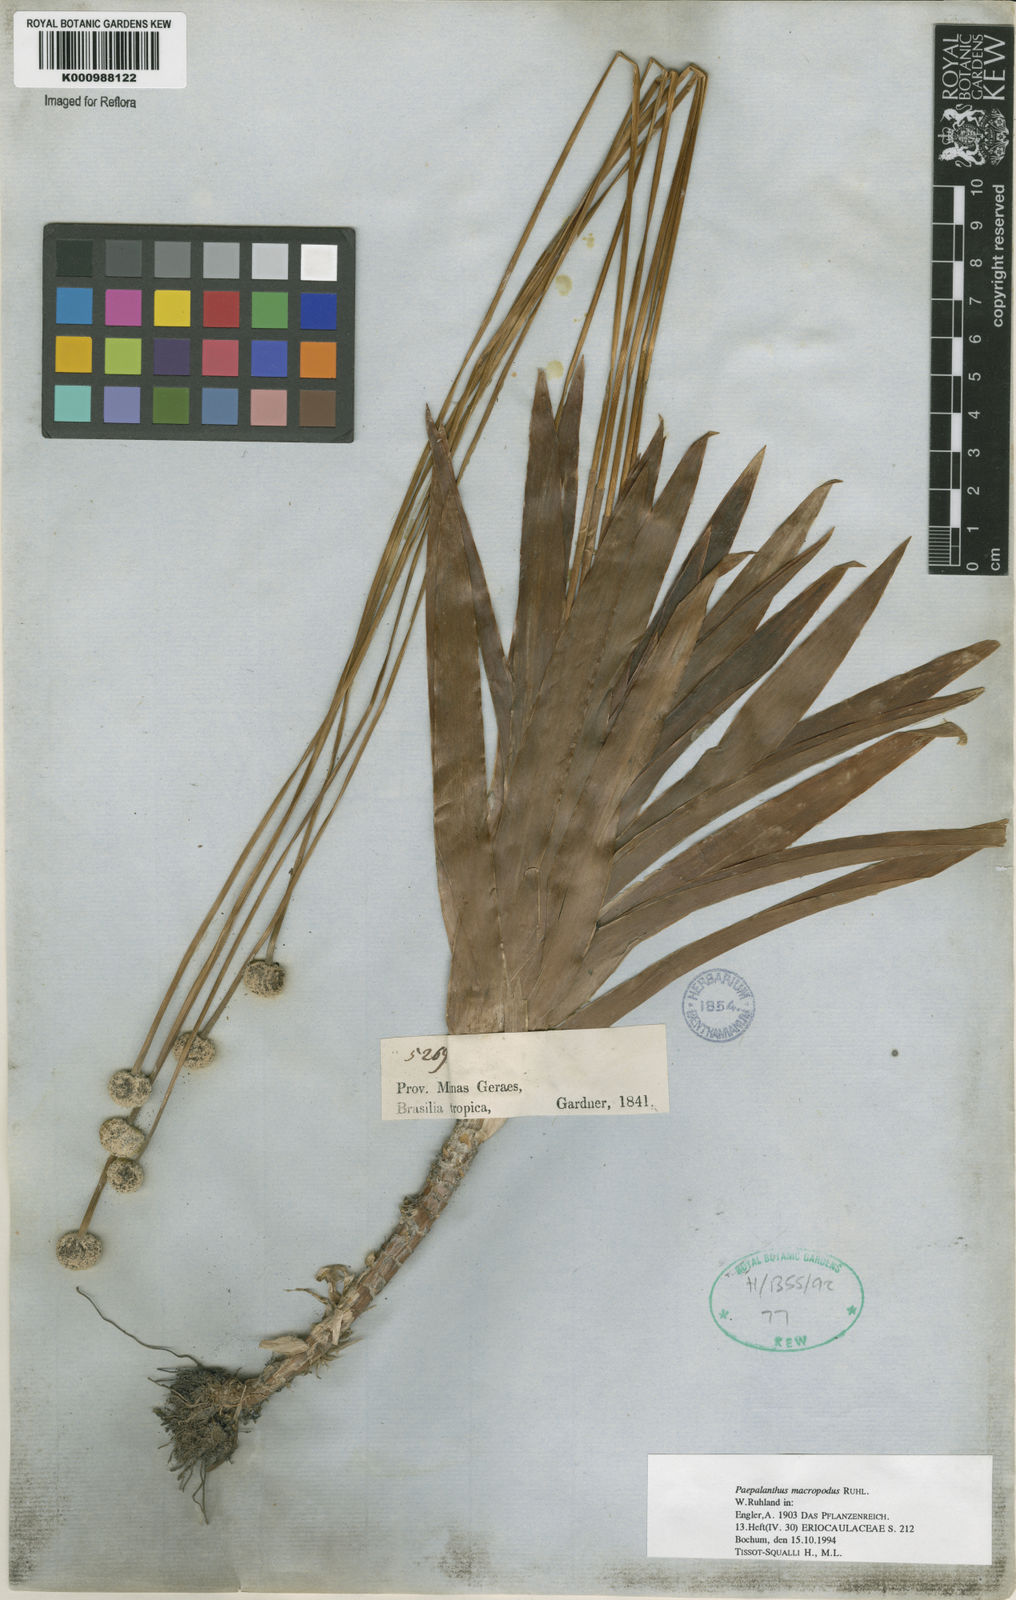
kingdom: Plantae
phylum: Tracheophyta
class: Liliopsida
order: Poales
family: Eriocaulaceae
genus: Paepalanthus
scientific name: Paepalanthus macropodus
